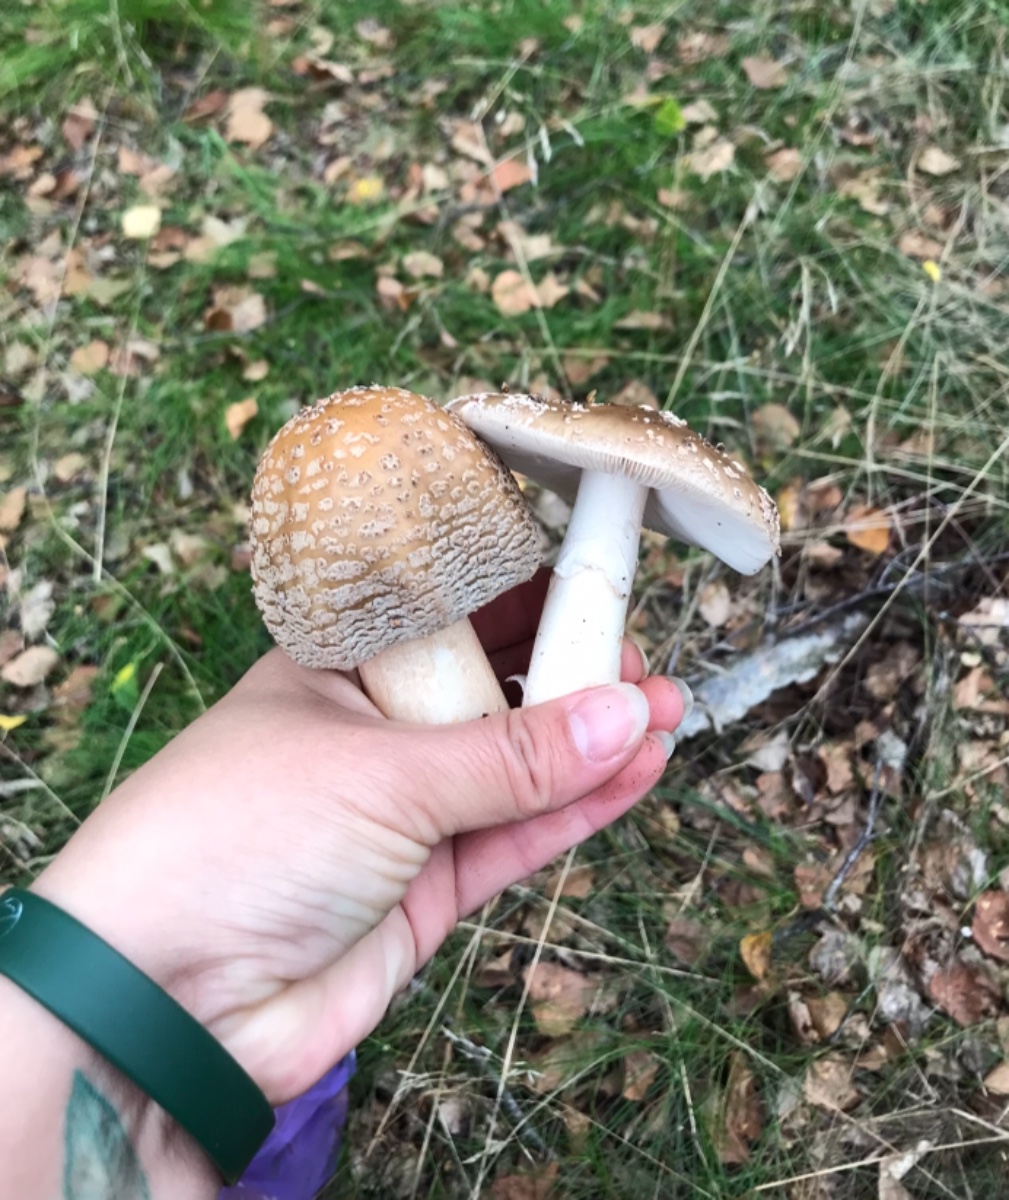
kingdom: Fungi
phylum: Basidiomycota
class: Agaricomycetes
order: Agaricales
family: Amanitaceae
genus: Amanita
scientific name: Amanita rubescens
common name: rødmende fluesvamp
